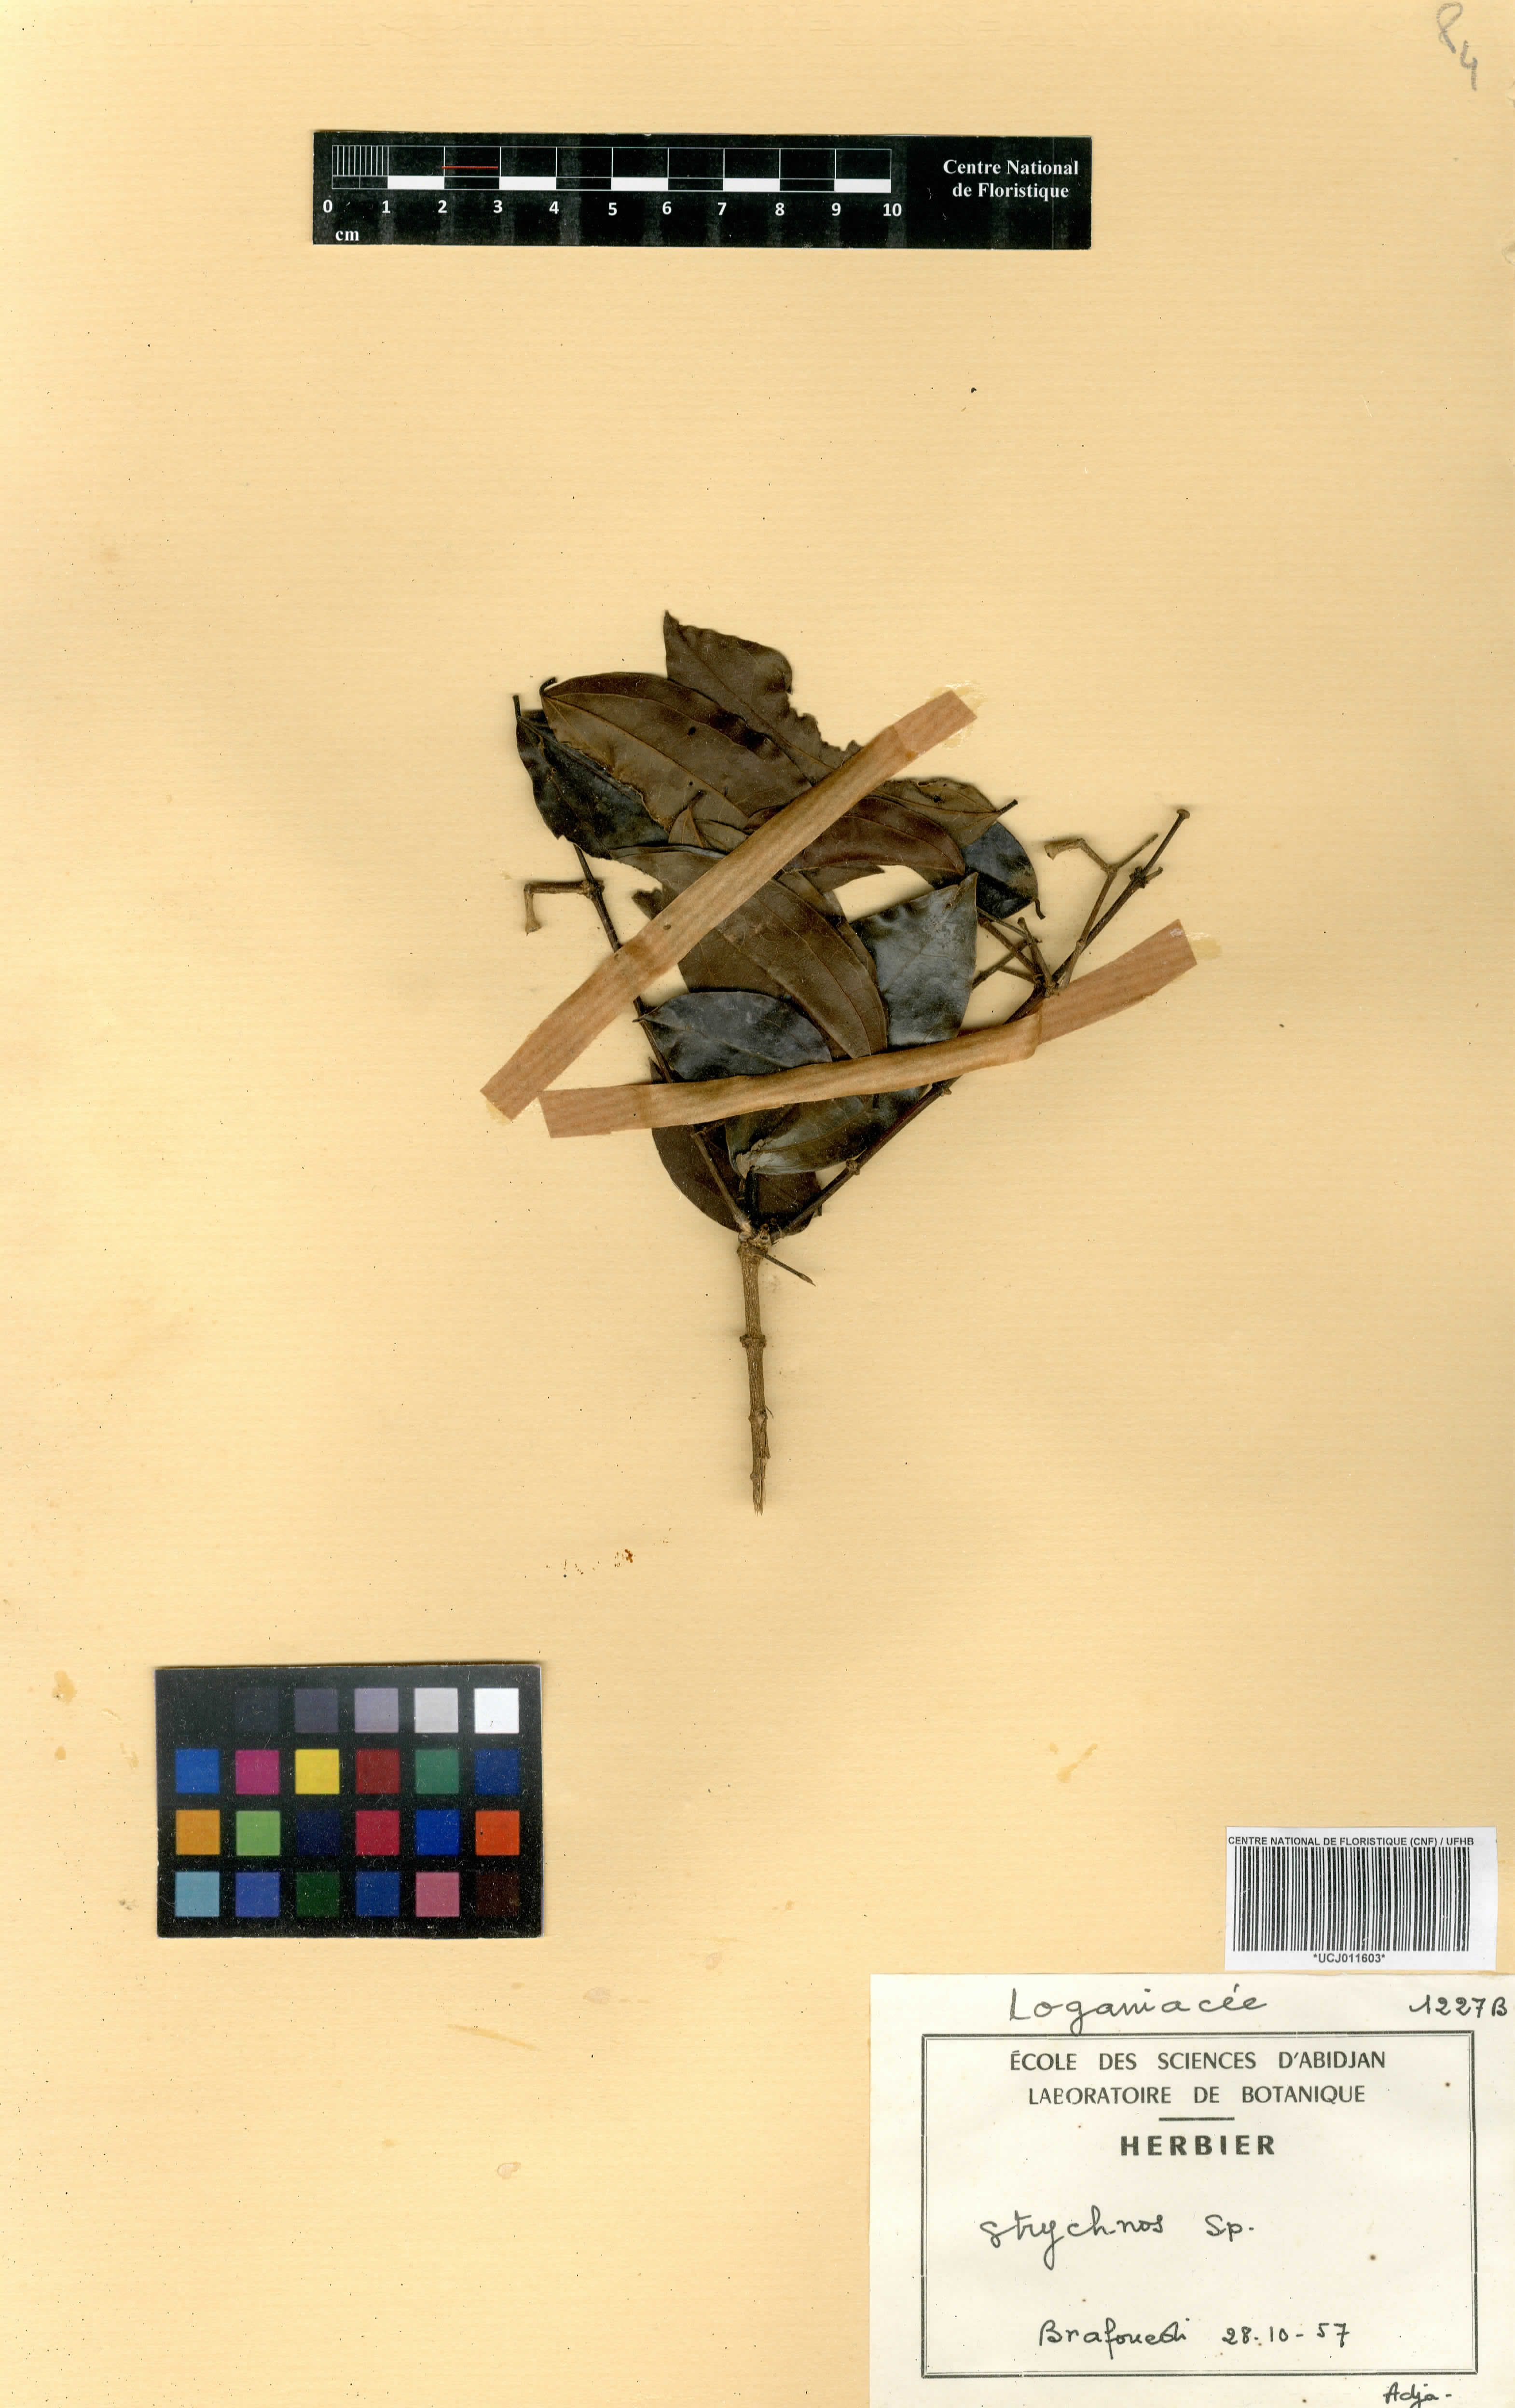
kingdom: Plantae
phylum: Tracheophyta
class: Magnoliopsida
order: Gentianales
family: Loganiaceae
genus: Strychnos
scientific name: Strychnos
